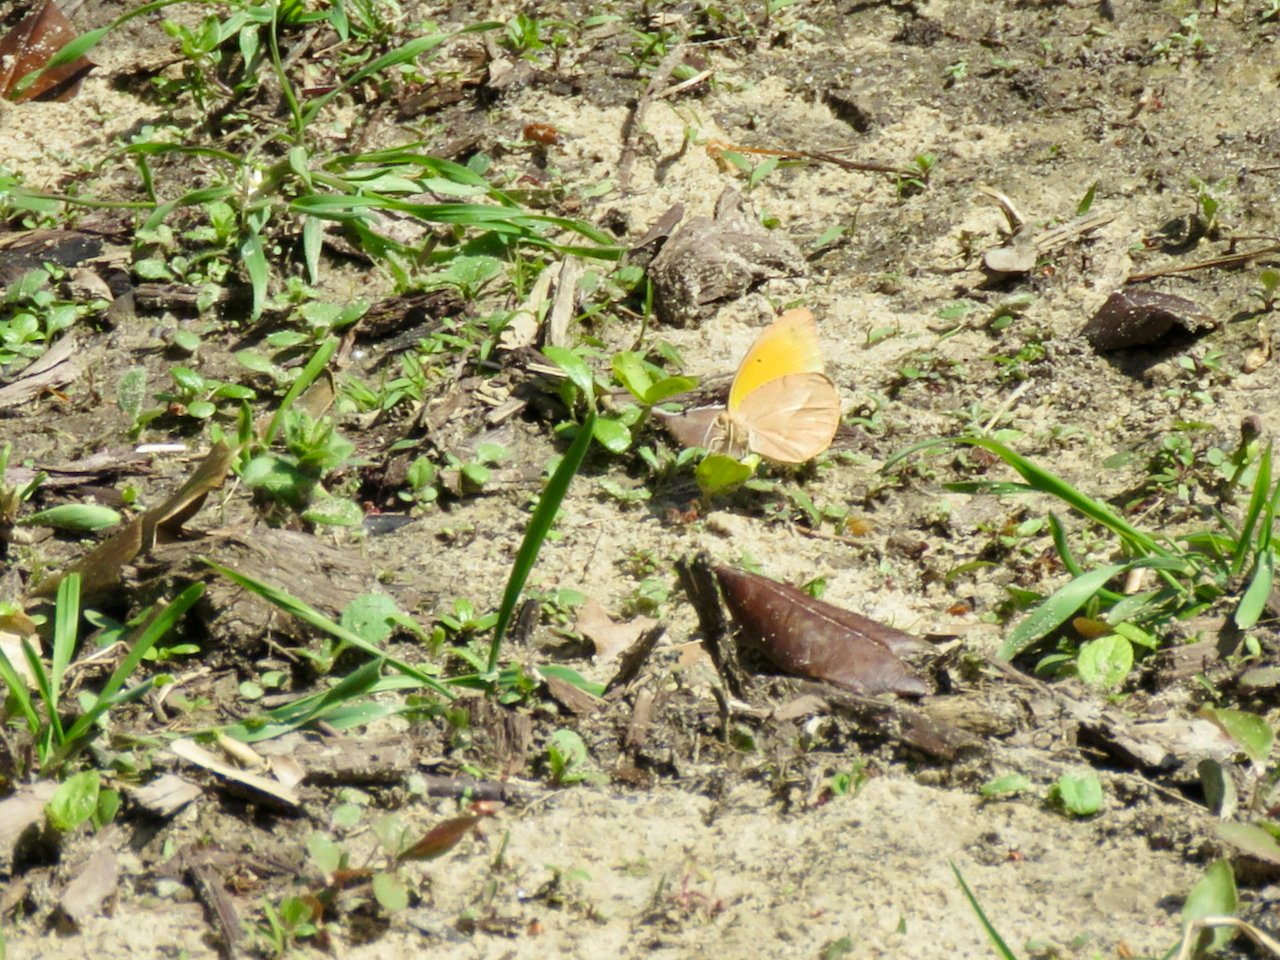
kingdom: Animalia
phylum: Arthropoda
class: Insecta
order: Lepidoptera
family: Pieridae
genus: Abaeis
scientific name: Abaeis nicippe
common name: Sleepy Orange
